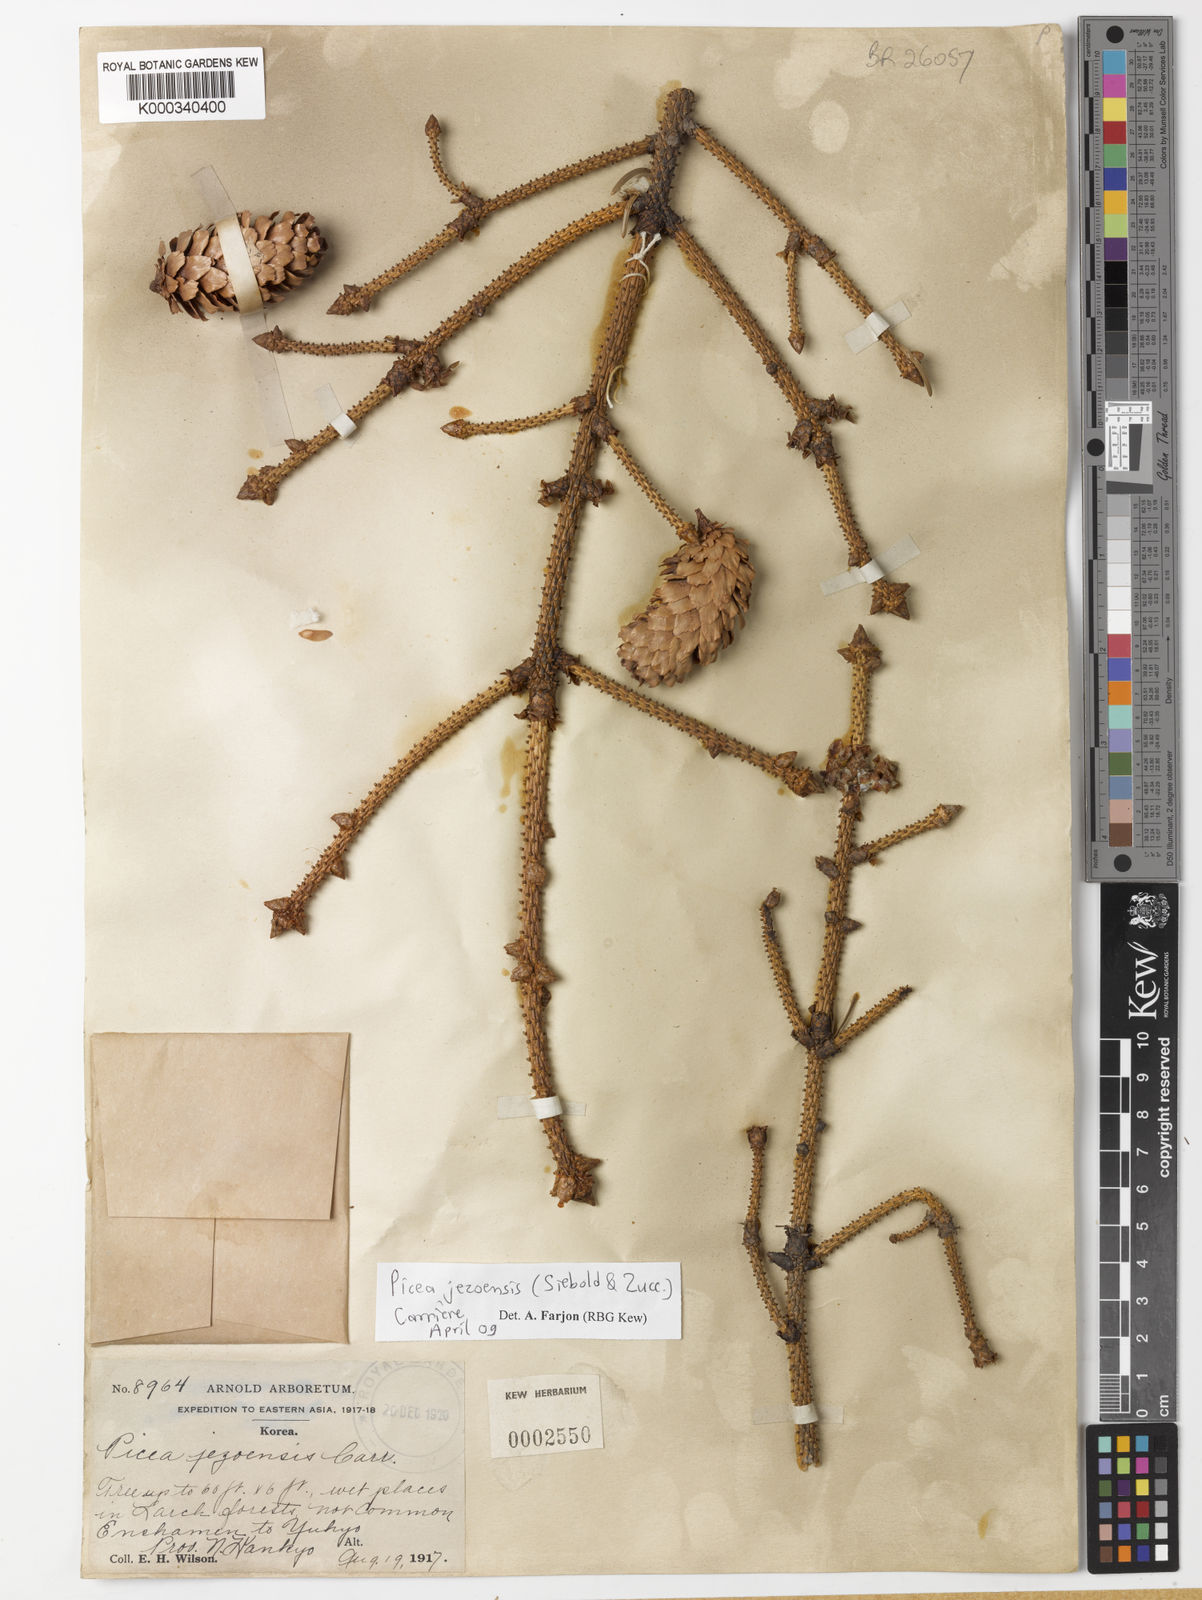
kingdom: Plantae
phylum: Tracheophyta
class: Pinopsida
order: Pinales
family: Pinaceae
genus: Picea
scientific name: Picea
